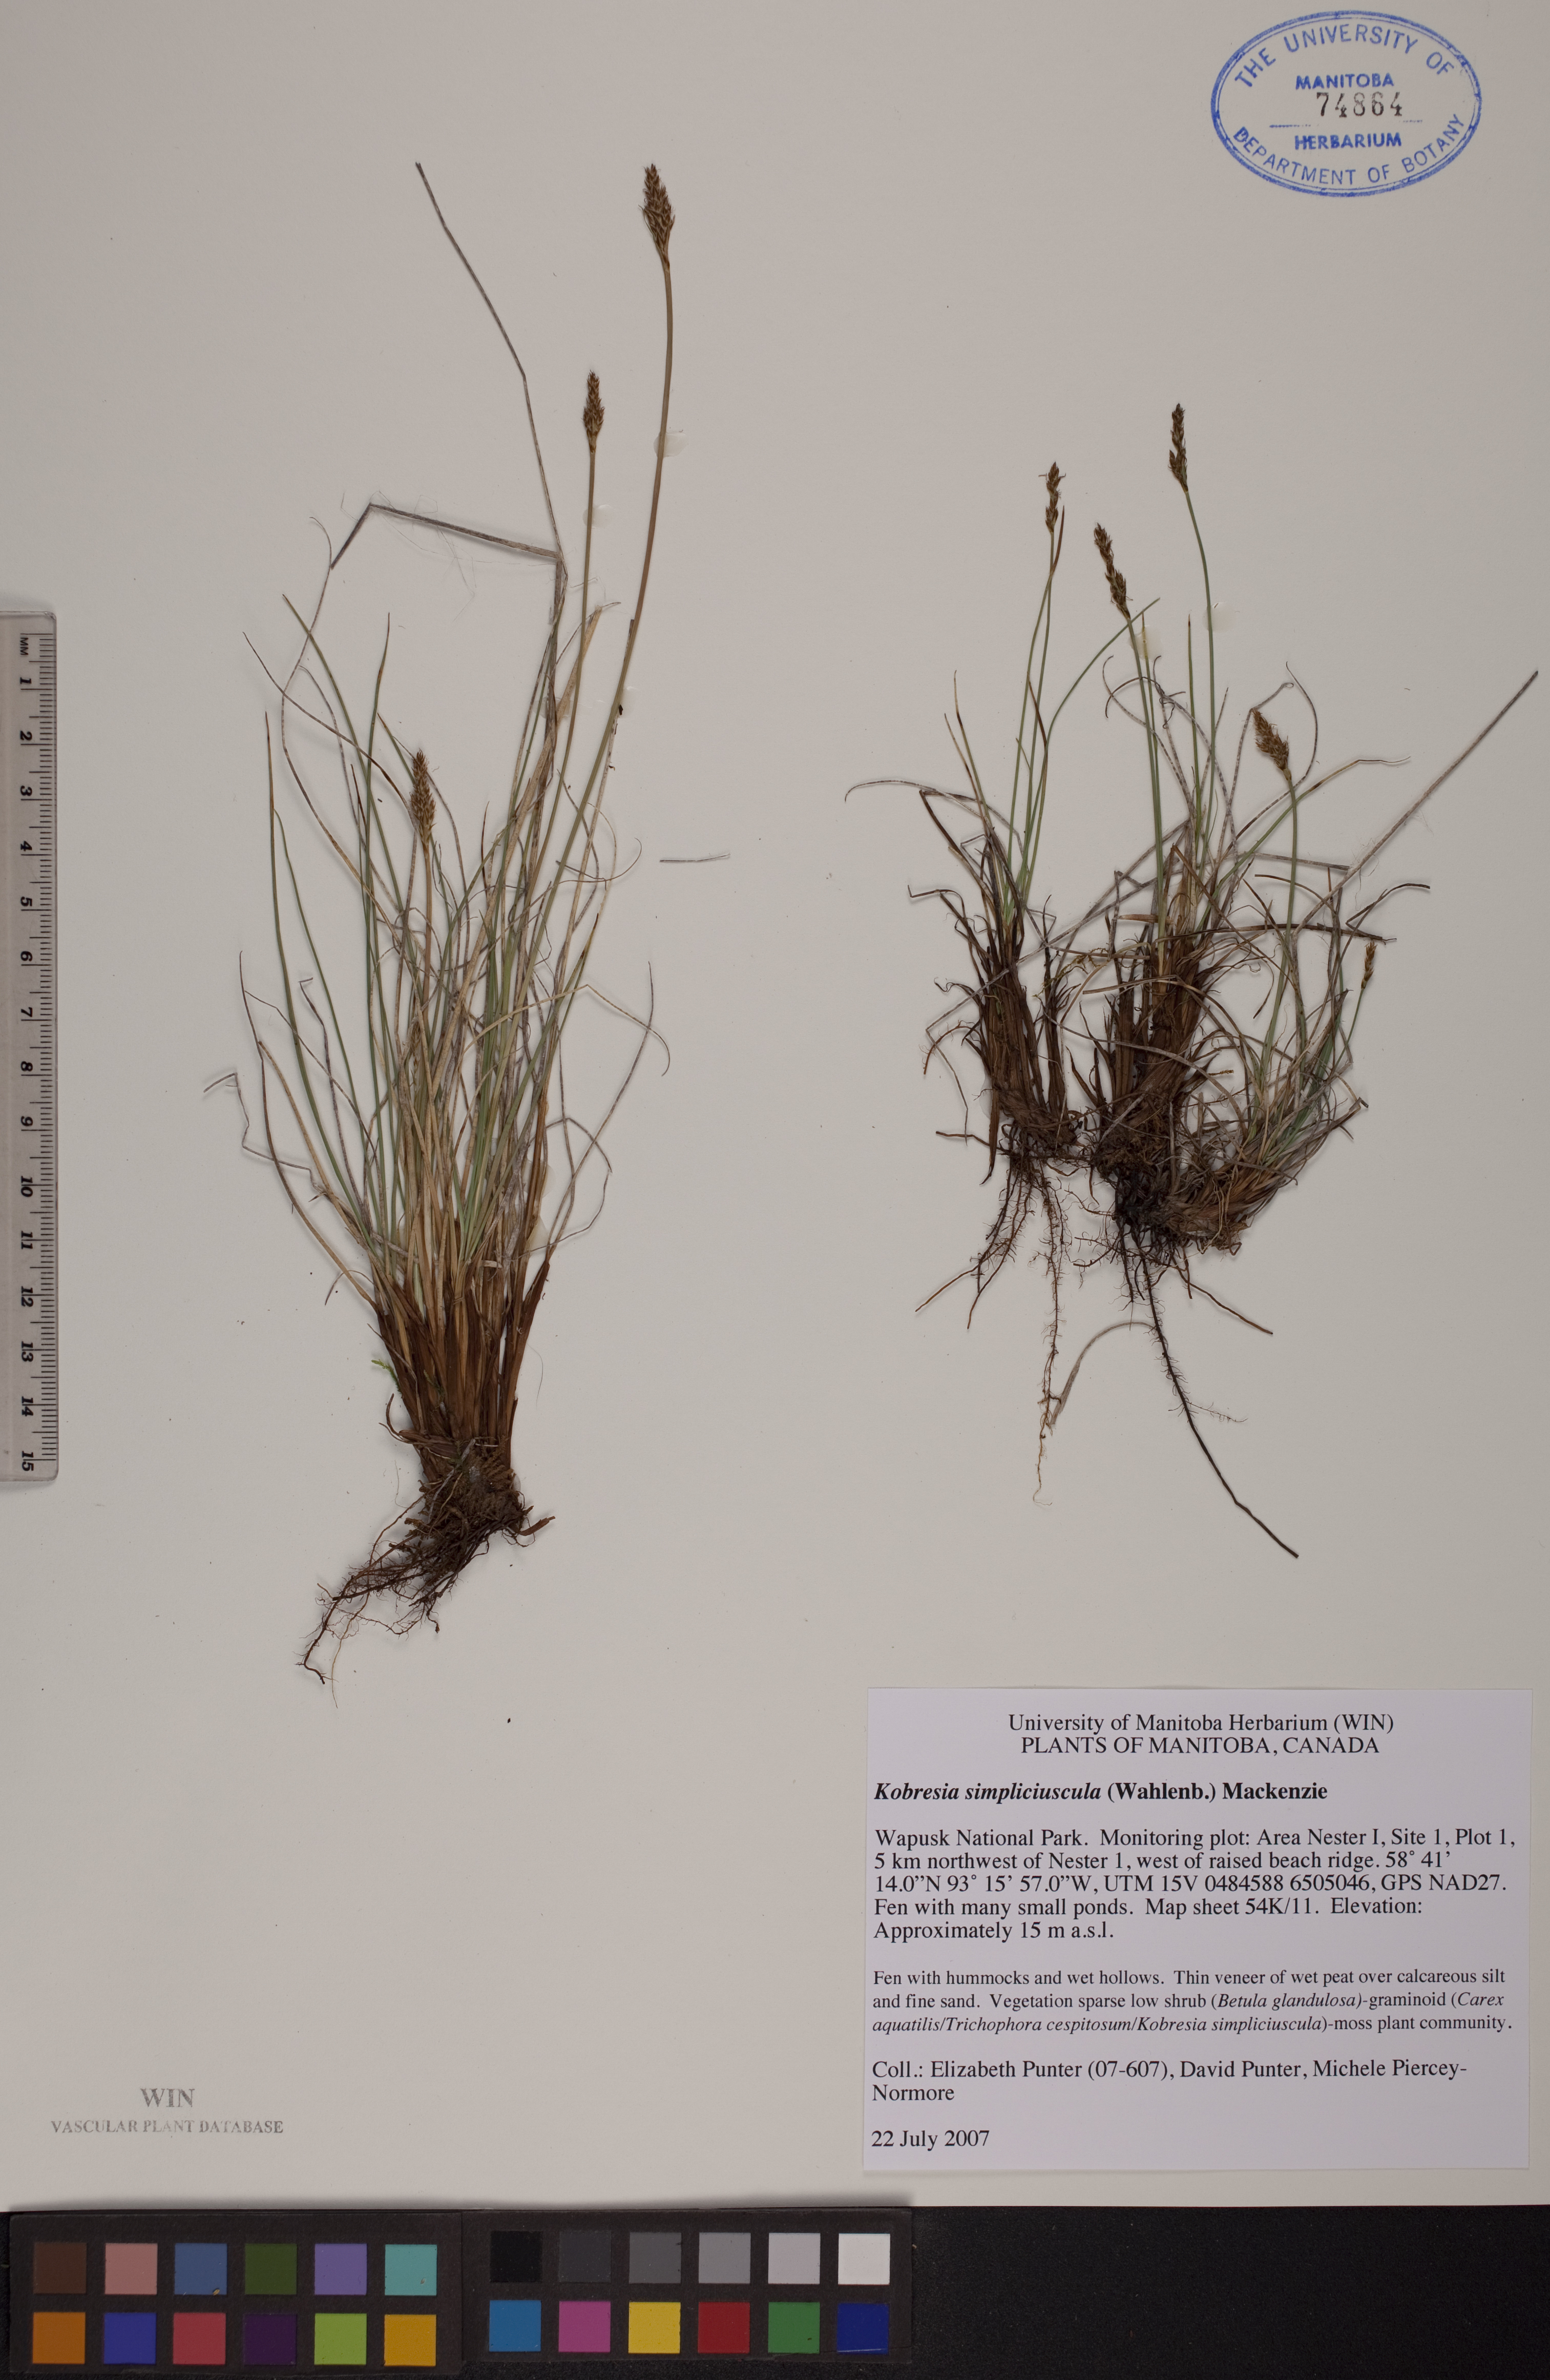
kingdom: Plantae
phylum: Tracheophyta
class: Liliopsida
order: Poales
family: Cyperaceae
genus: Carex
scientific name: Carex simpliciuscula
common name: Simple bog sedge
